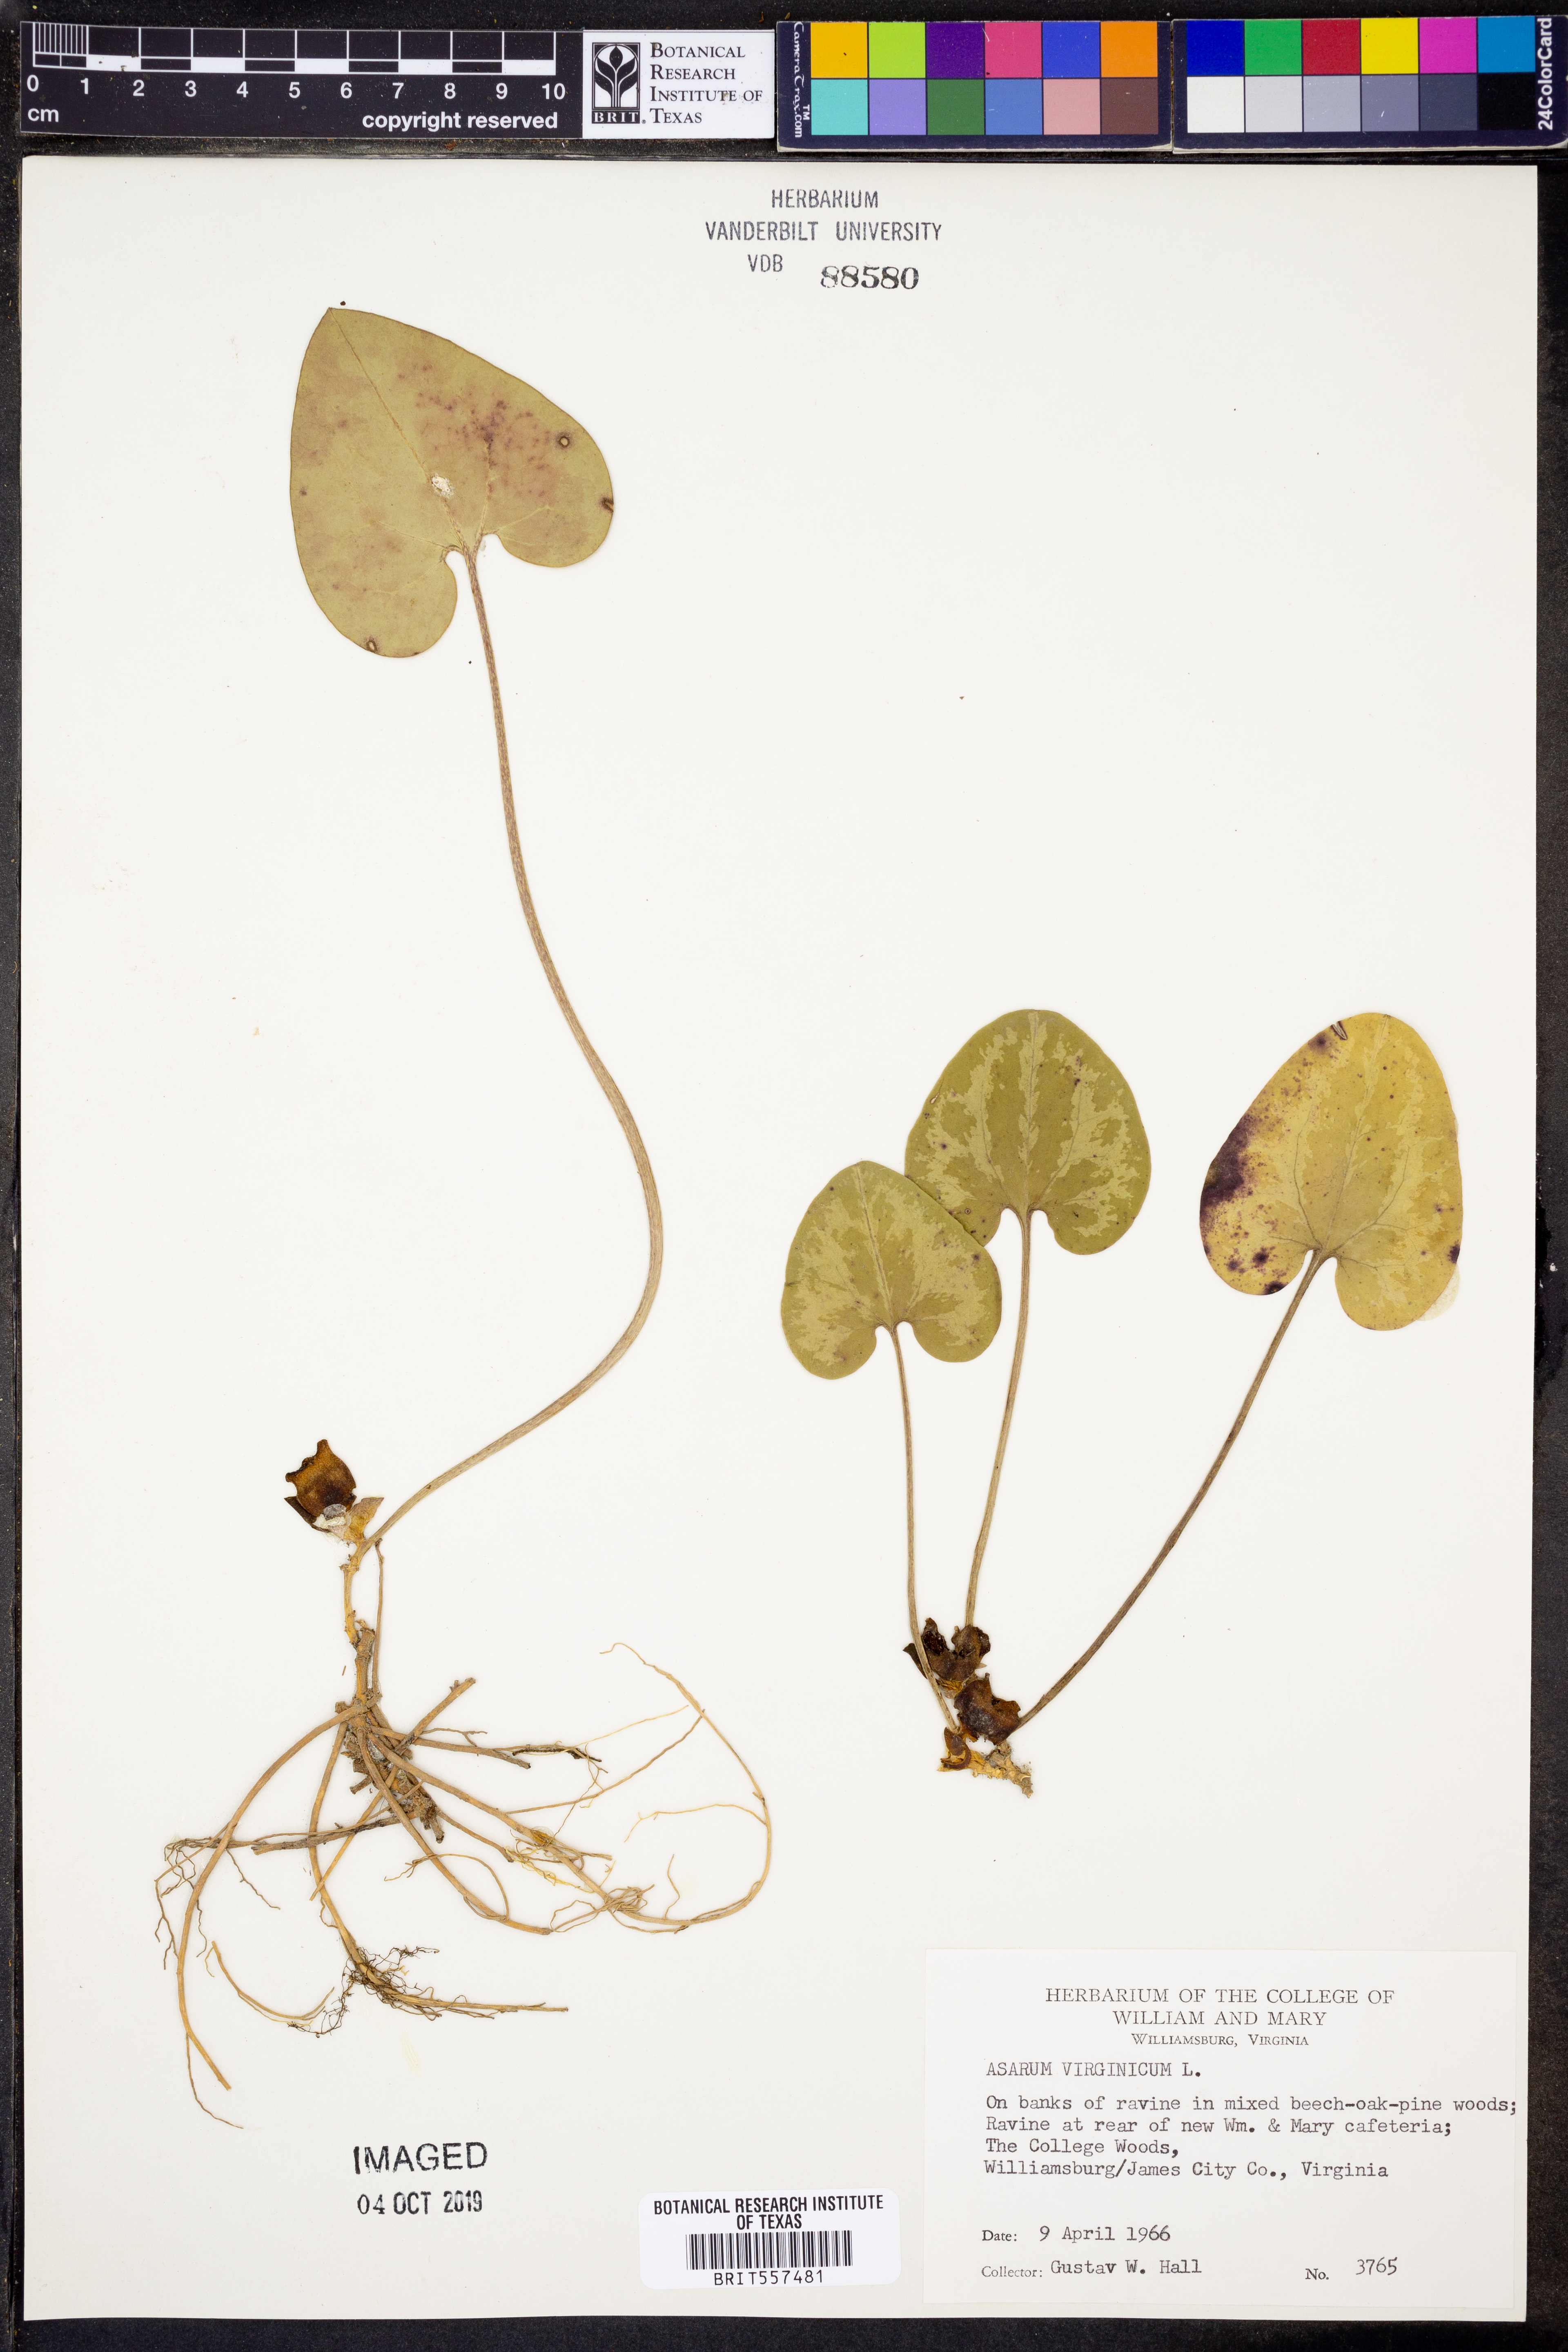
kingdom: Plantae
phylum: Tracheophyta
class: Magnoliopsida
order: Piperales
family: Aristolochiaceae
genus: Hexastylis
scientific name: Hexastylis virginica
